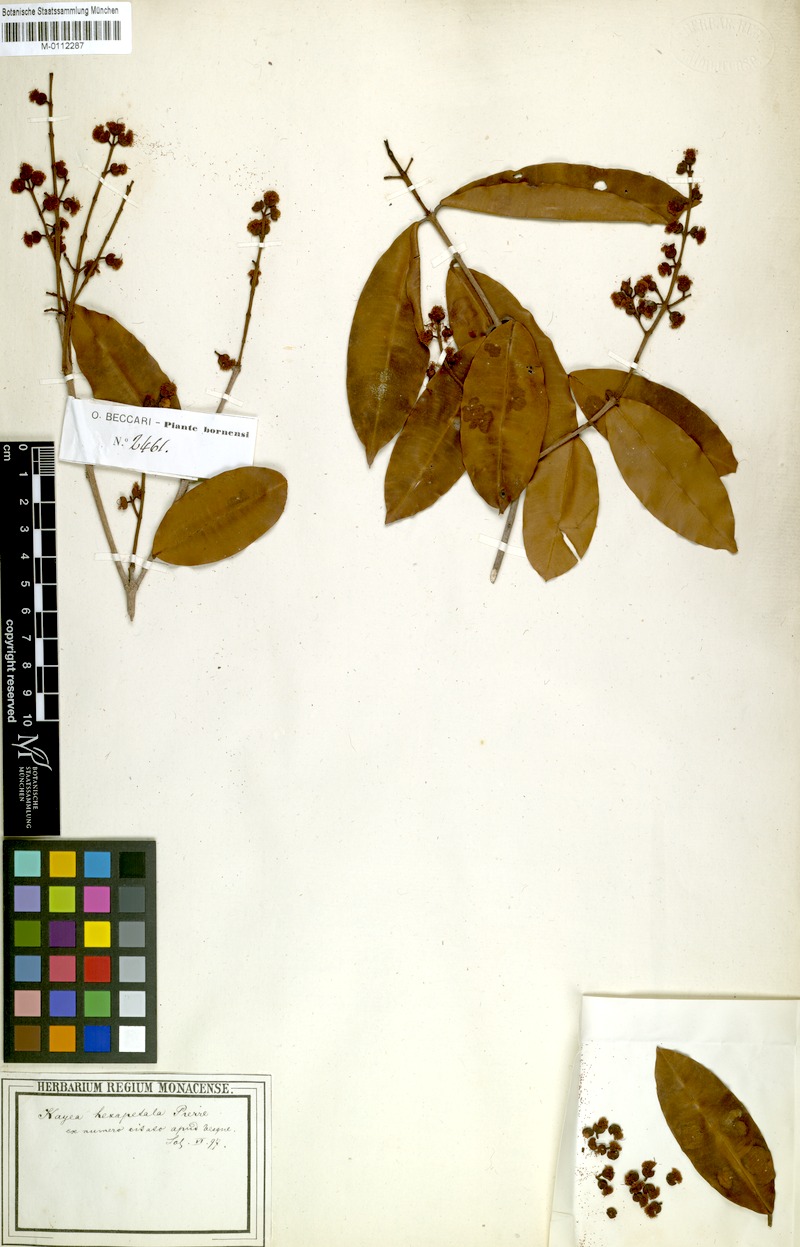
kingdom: Plantae
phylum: Tracheophyta
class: Magnoliopsida
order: Malpighiales
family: Calophyllaceae
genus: Kayea
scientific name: Kayea hexapetala
